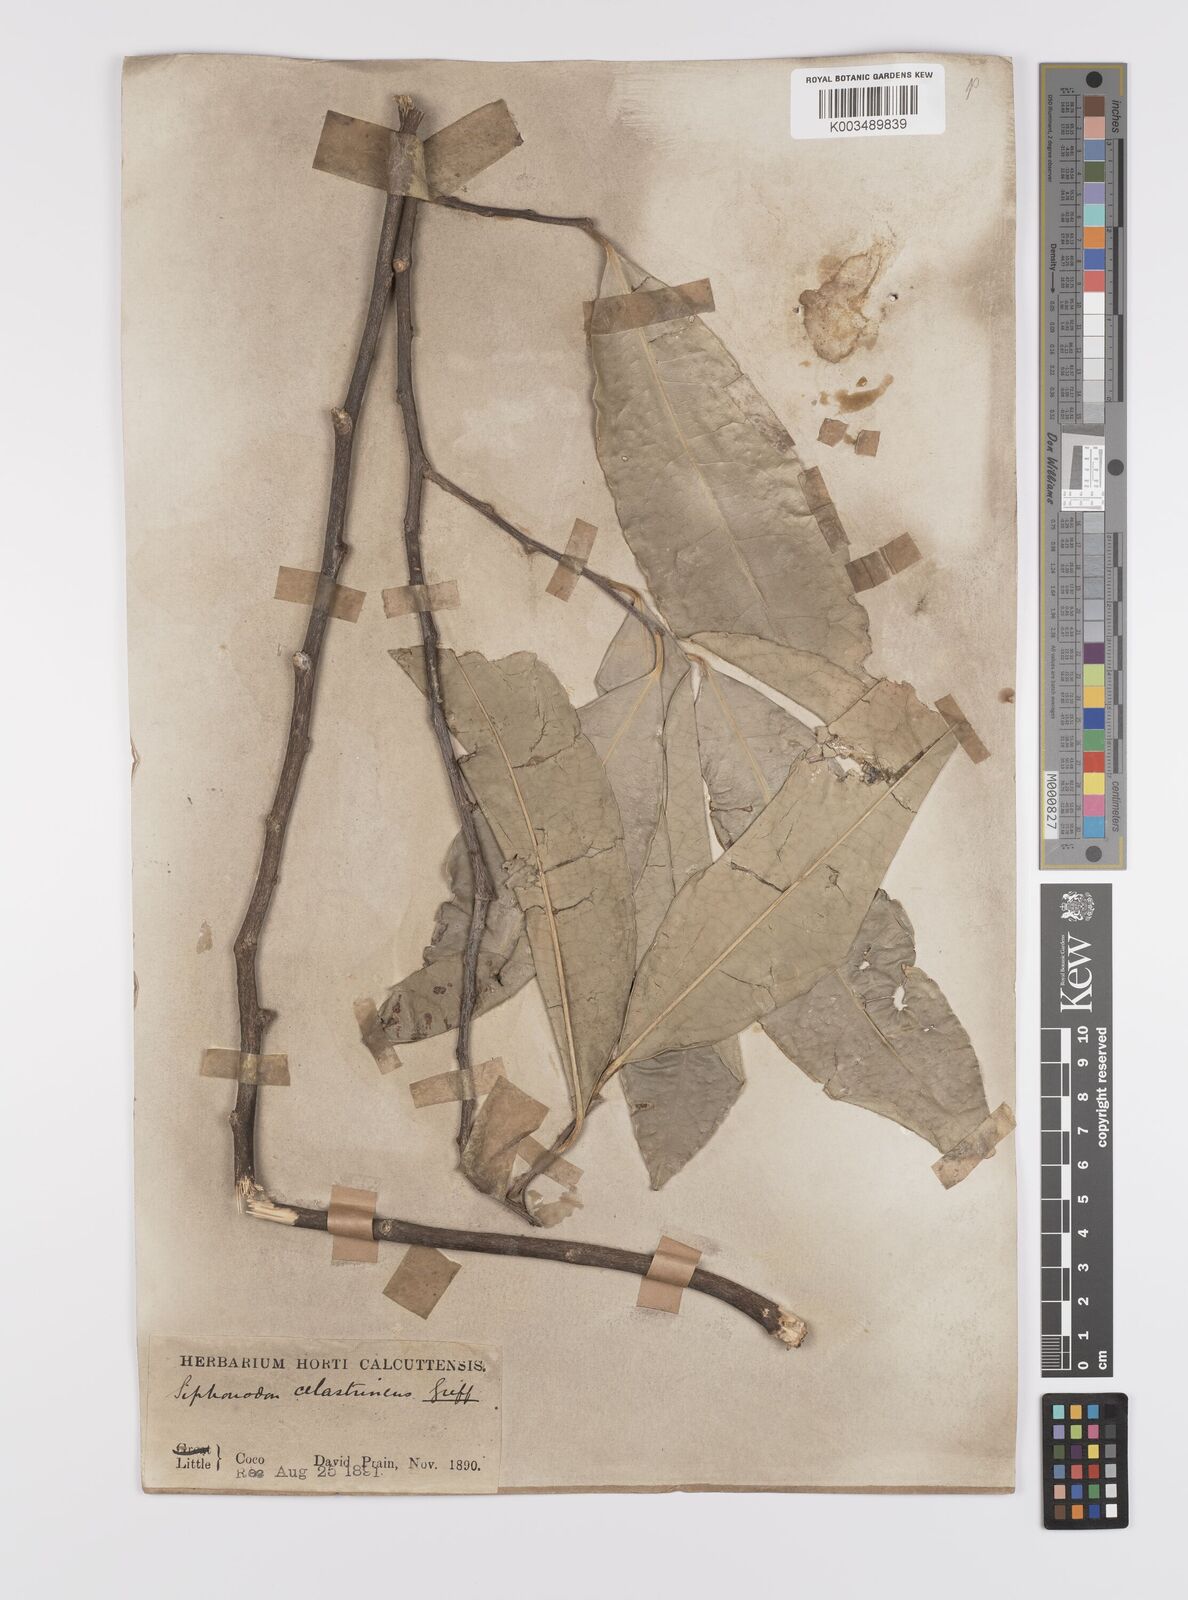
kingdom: Plantae
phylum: Tracheophyta
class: Magnoliopsida
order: Celastrales
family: Celastraceae
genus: Siphonodon
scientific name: Siphonodon celastrineus
